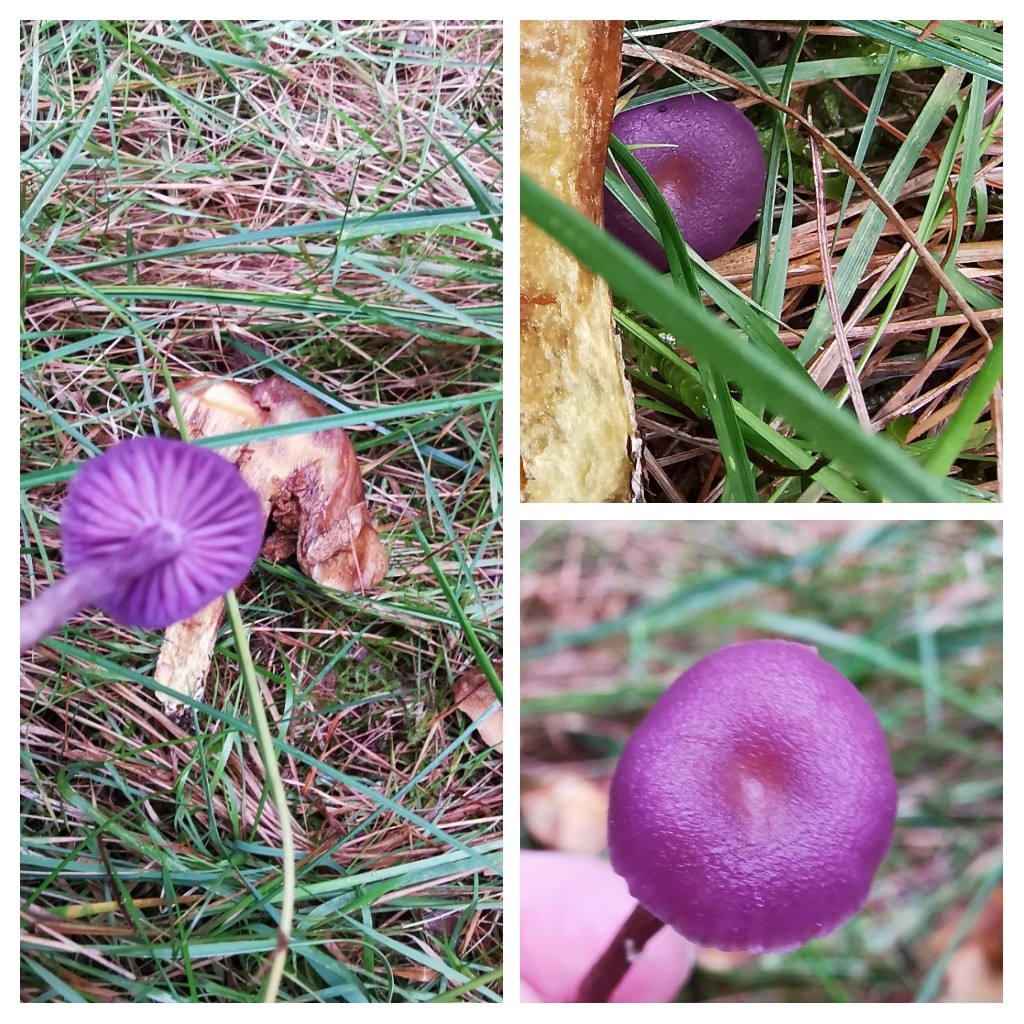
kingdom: Fungi
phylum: Basidiomycota
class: Agaricomycetes
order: Agaricales
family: Hydnangiaceae
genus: Laccaria
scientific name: Laccaria amethystina
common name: violet ametysthat
